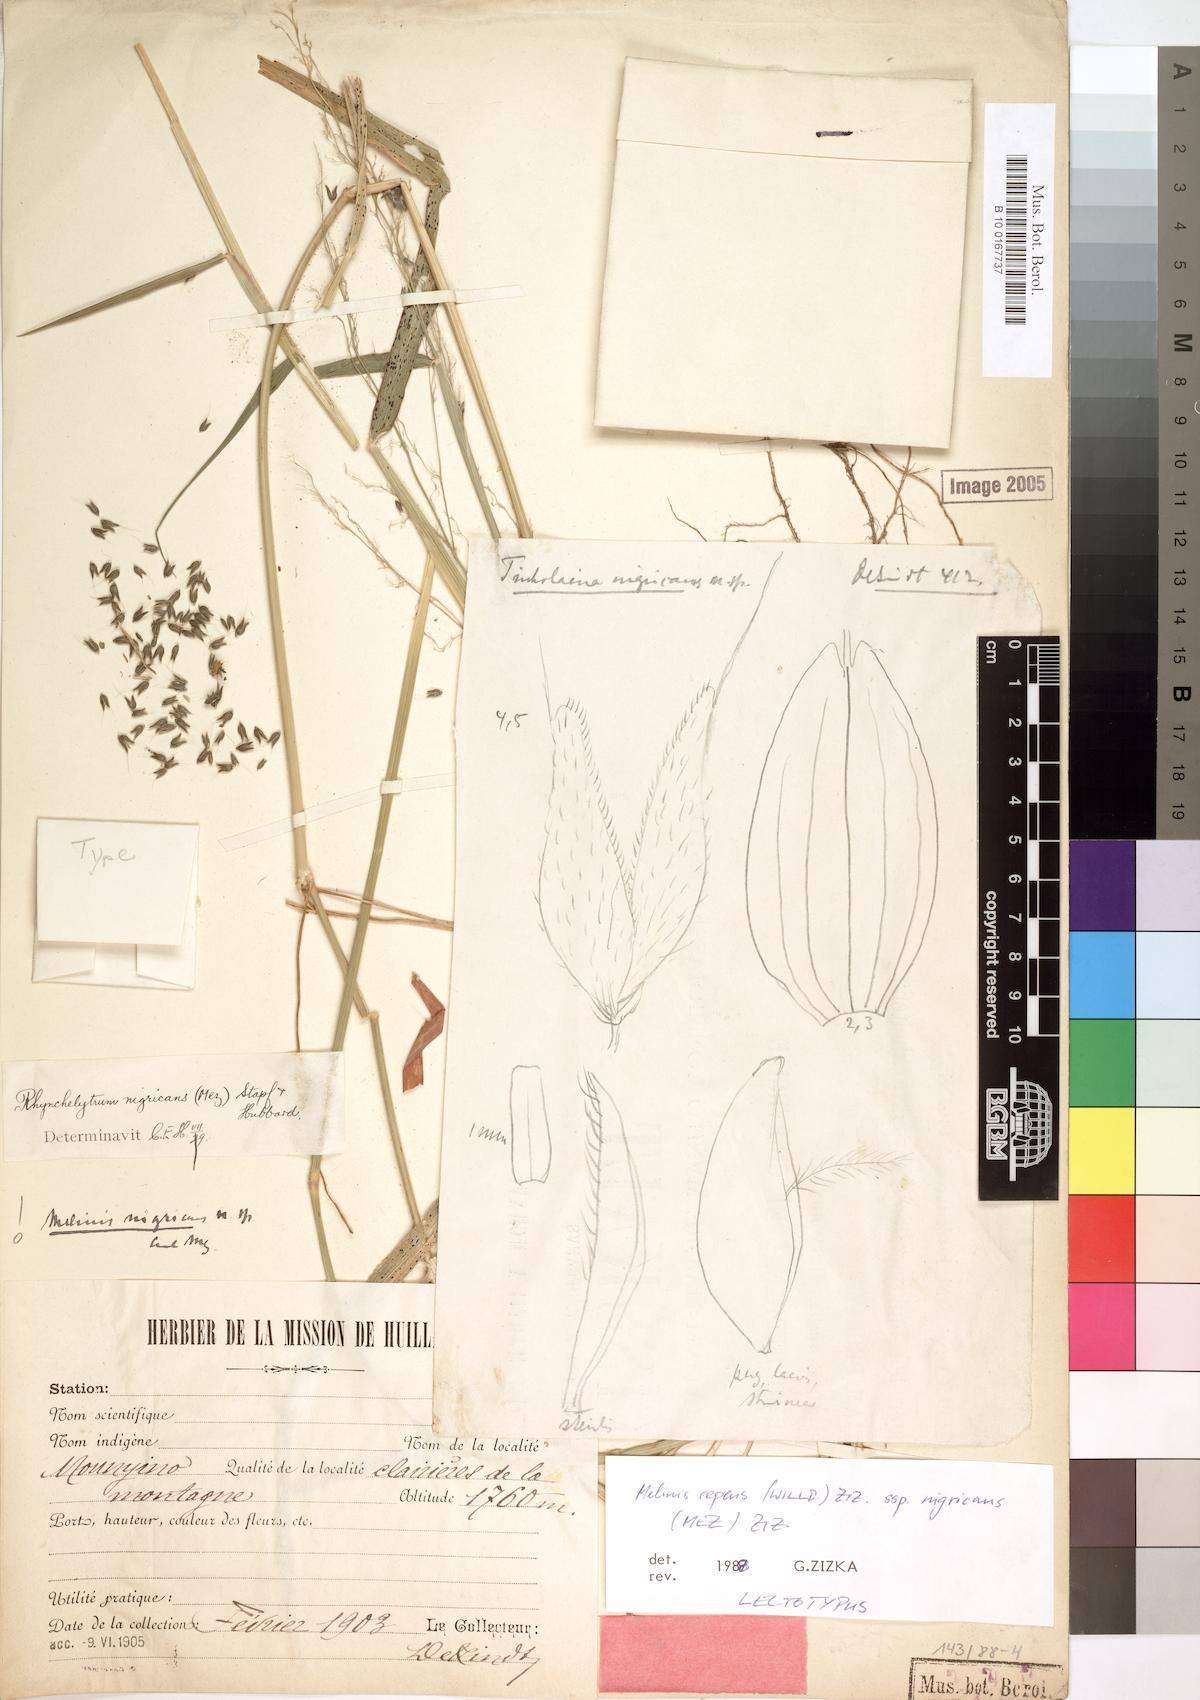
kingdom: Plantae
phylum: Tracheophyta
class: Liliopsida
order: Poales
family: Poaceae
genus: Melinis
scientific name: Melinis repens
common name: Rose natal grass
